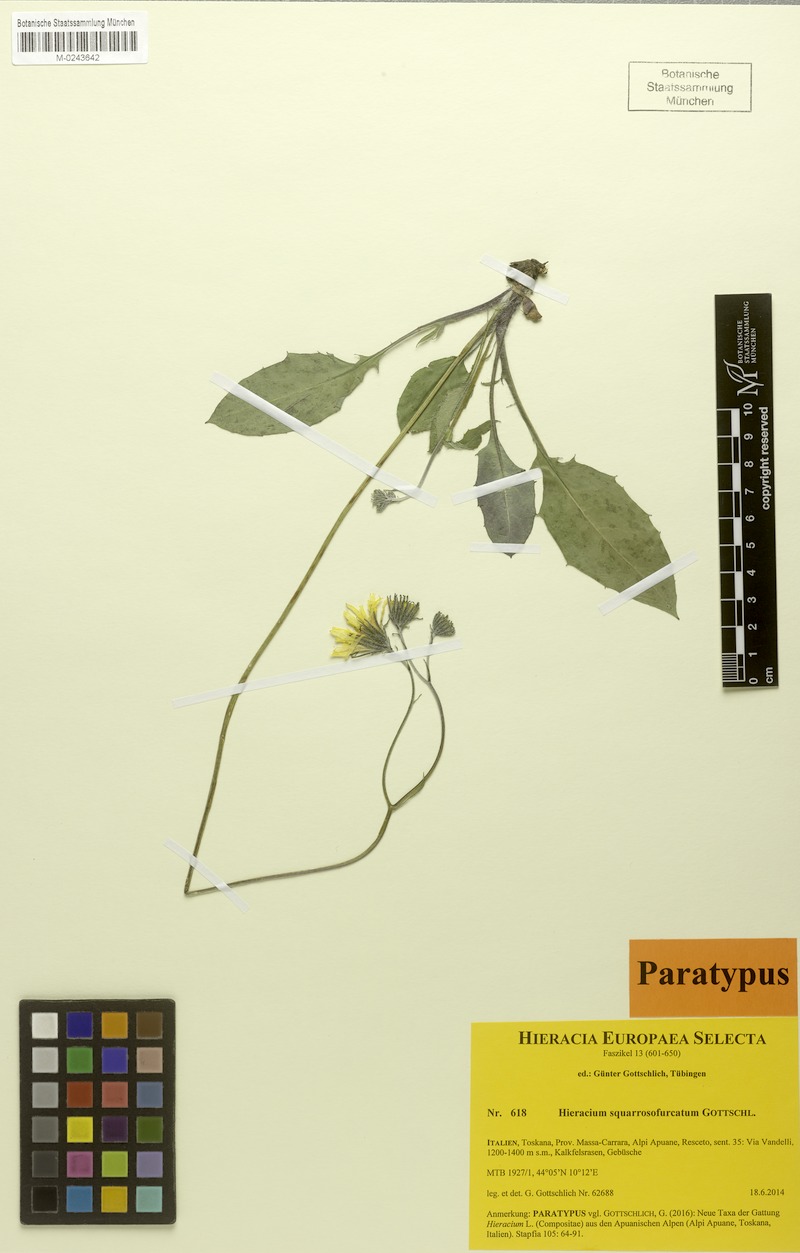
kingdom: Plantae
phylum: Tracheophyta
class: Magnoliopsida
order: Asterales
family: Asteraceae
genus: Hieracium
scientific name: Hieracium squarrosofurcatum
